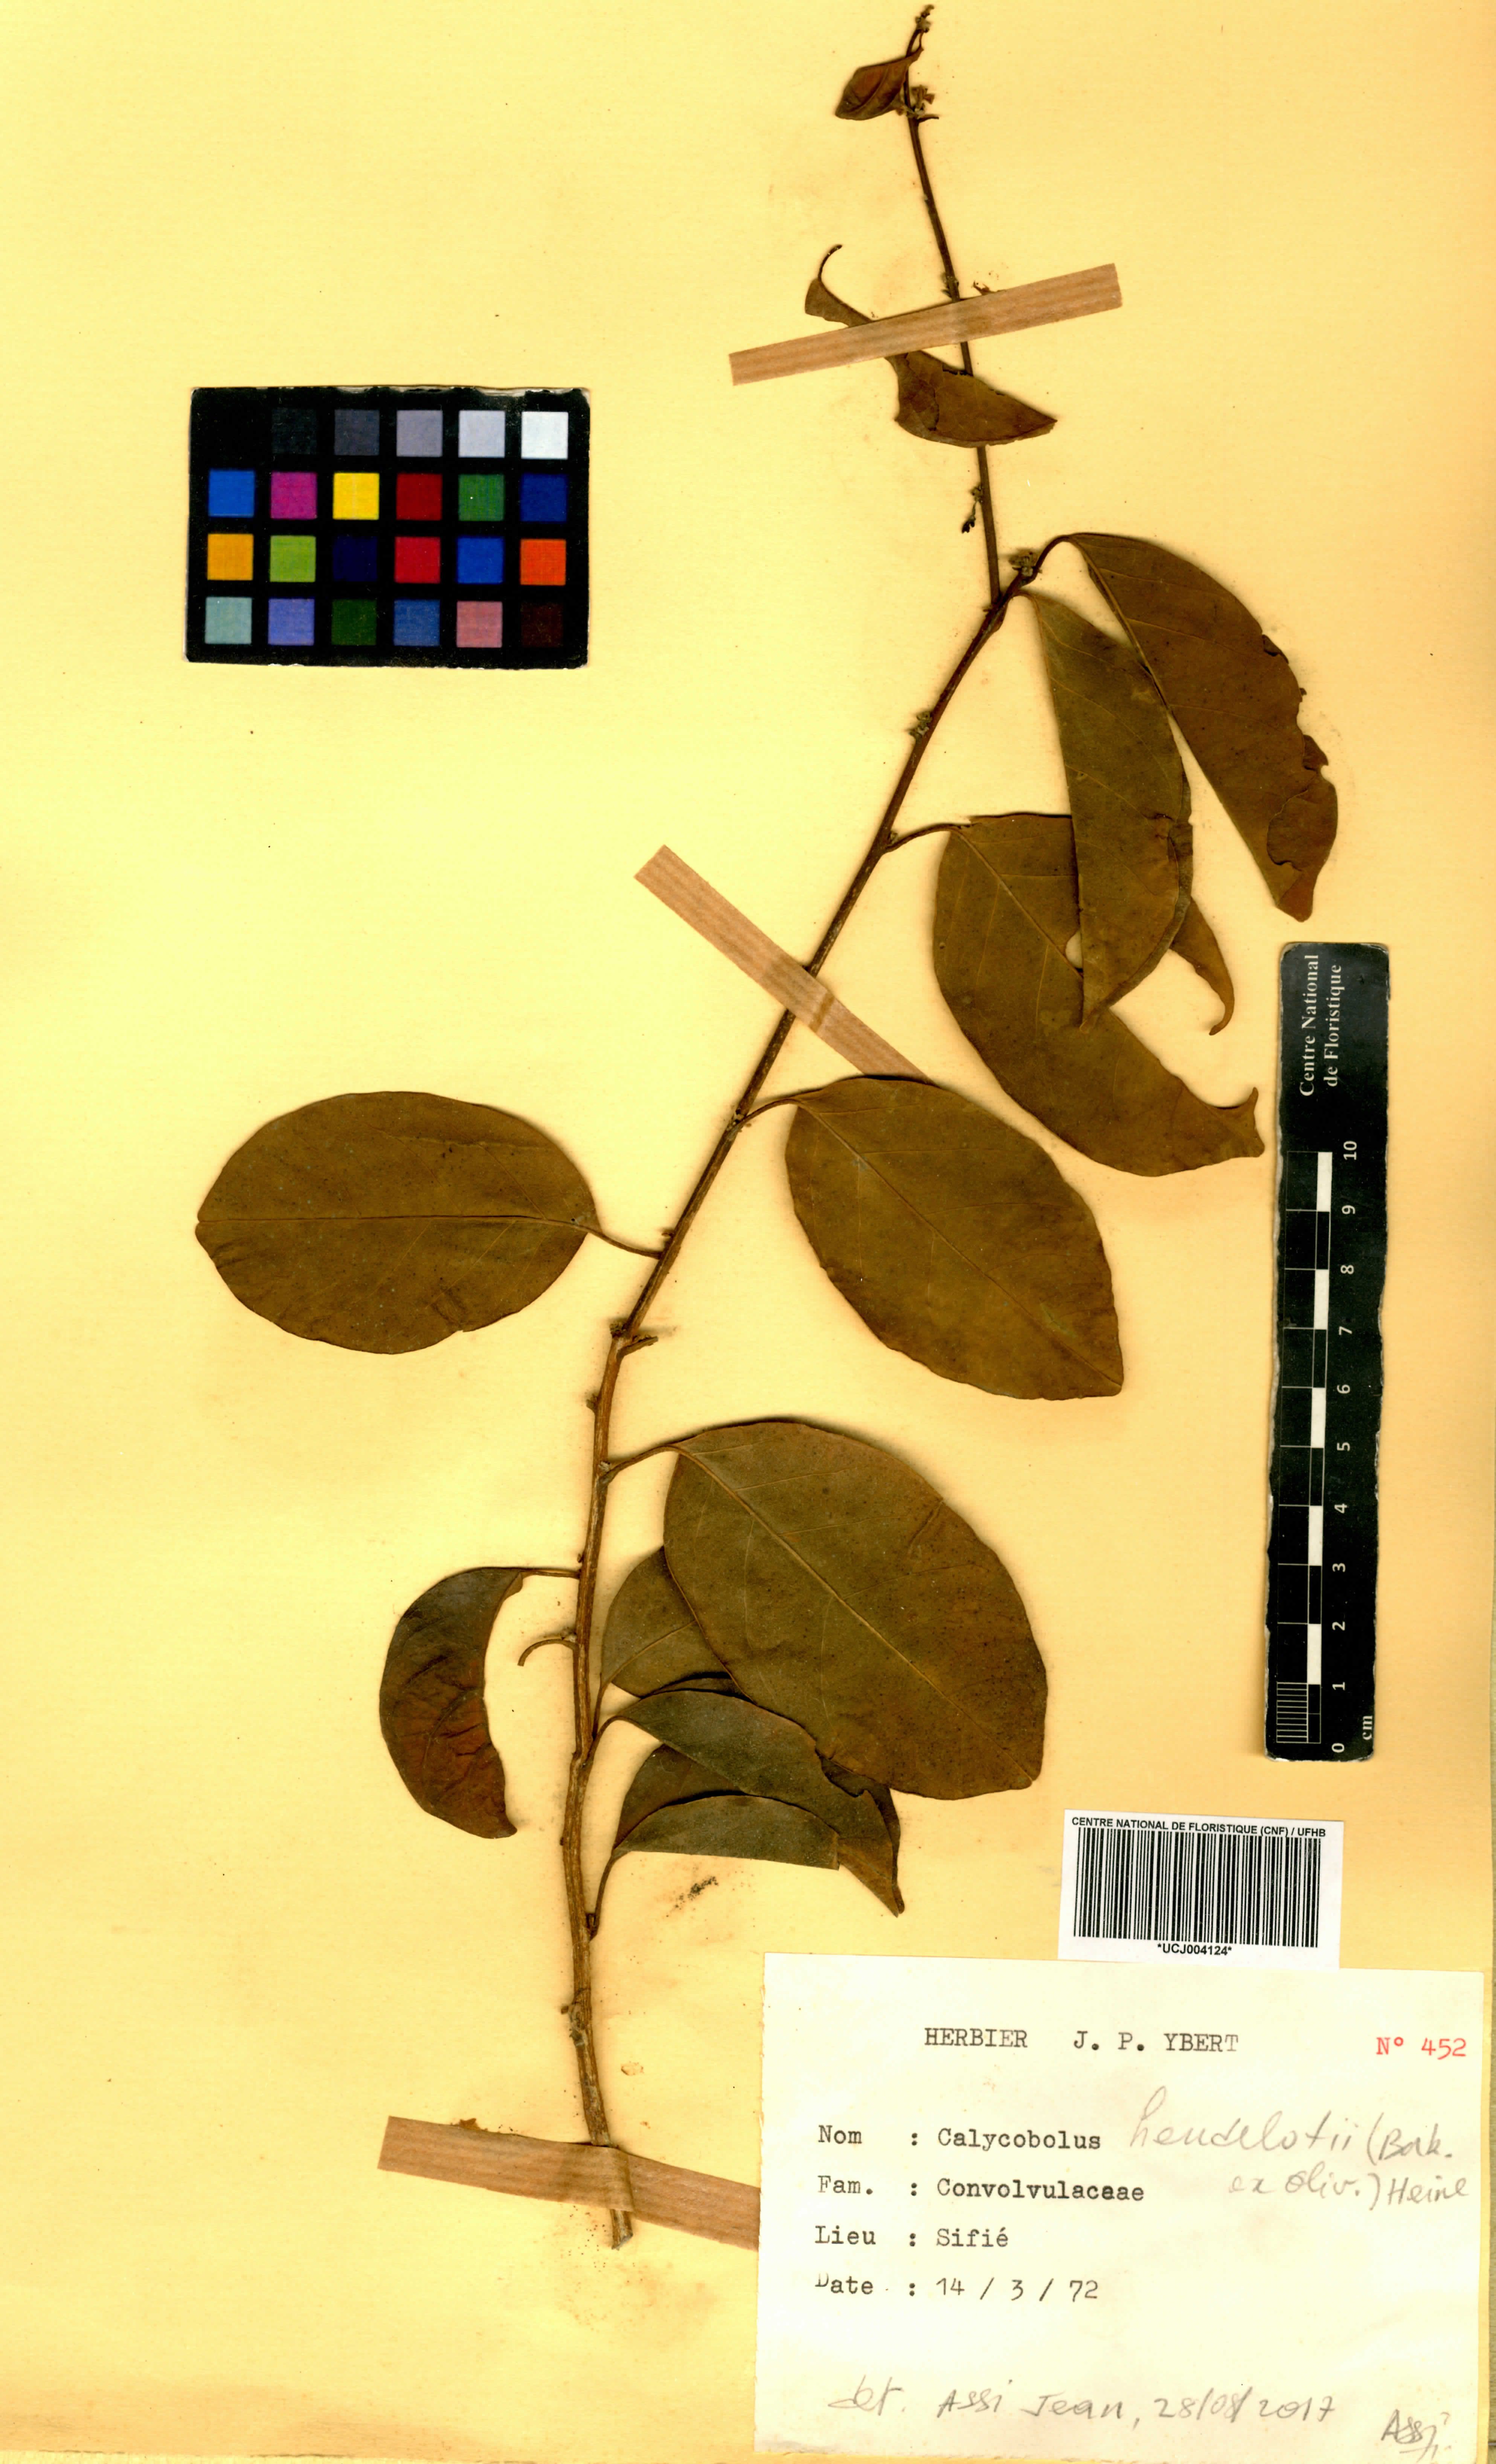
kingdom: Plantae
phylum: Tracheophyta
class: Magnoliopsida
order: Solanales
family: Convolvulaceae
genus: Calycobolus
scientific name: Calycobolus heudelotii
